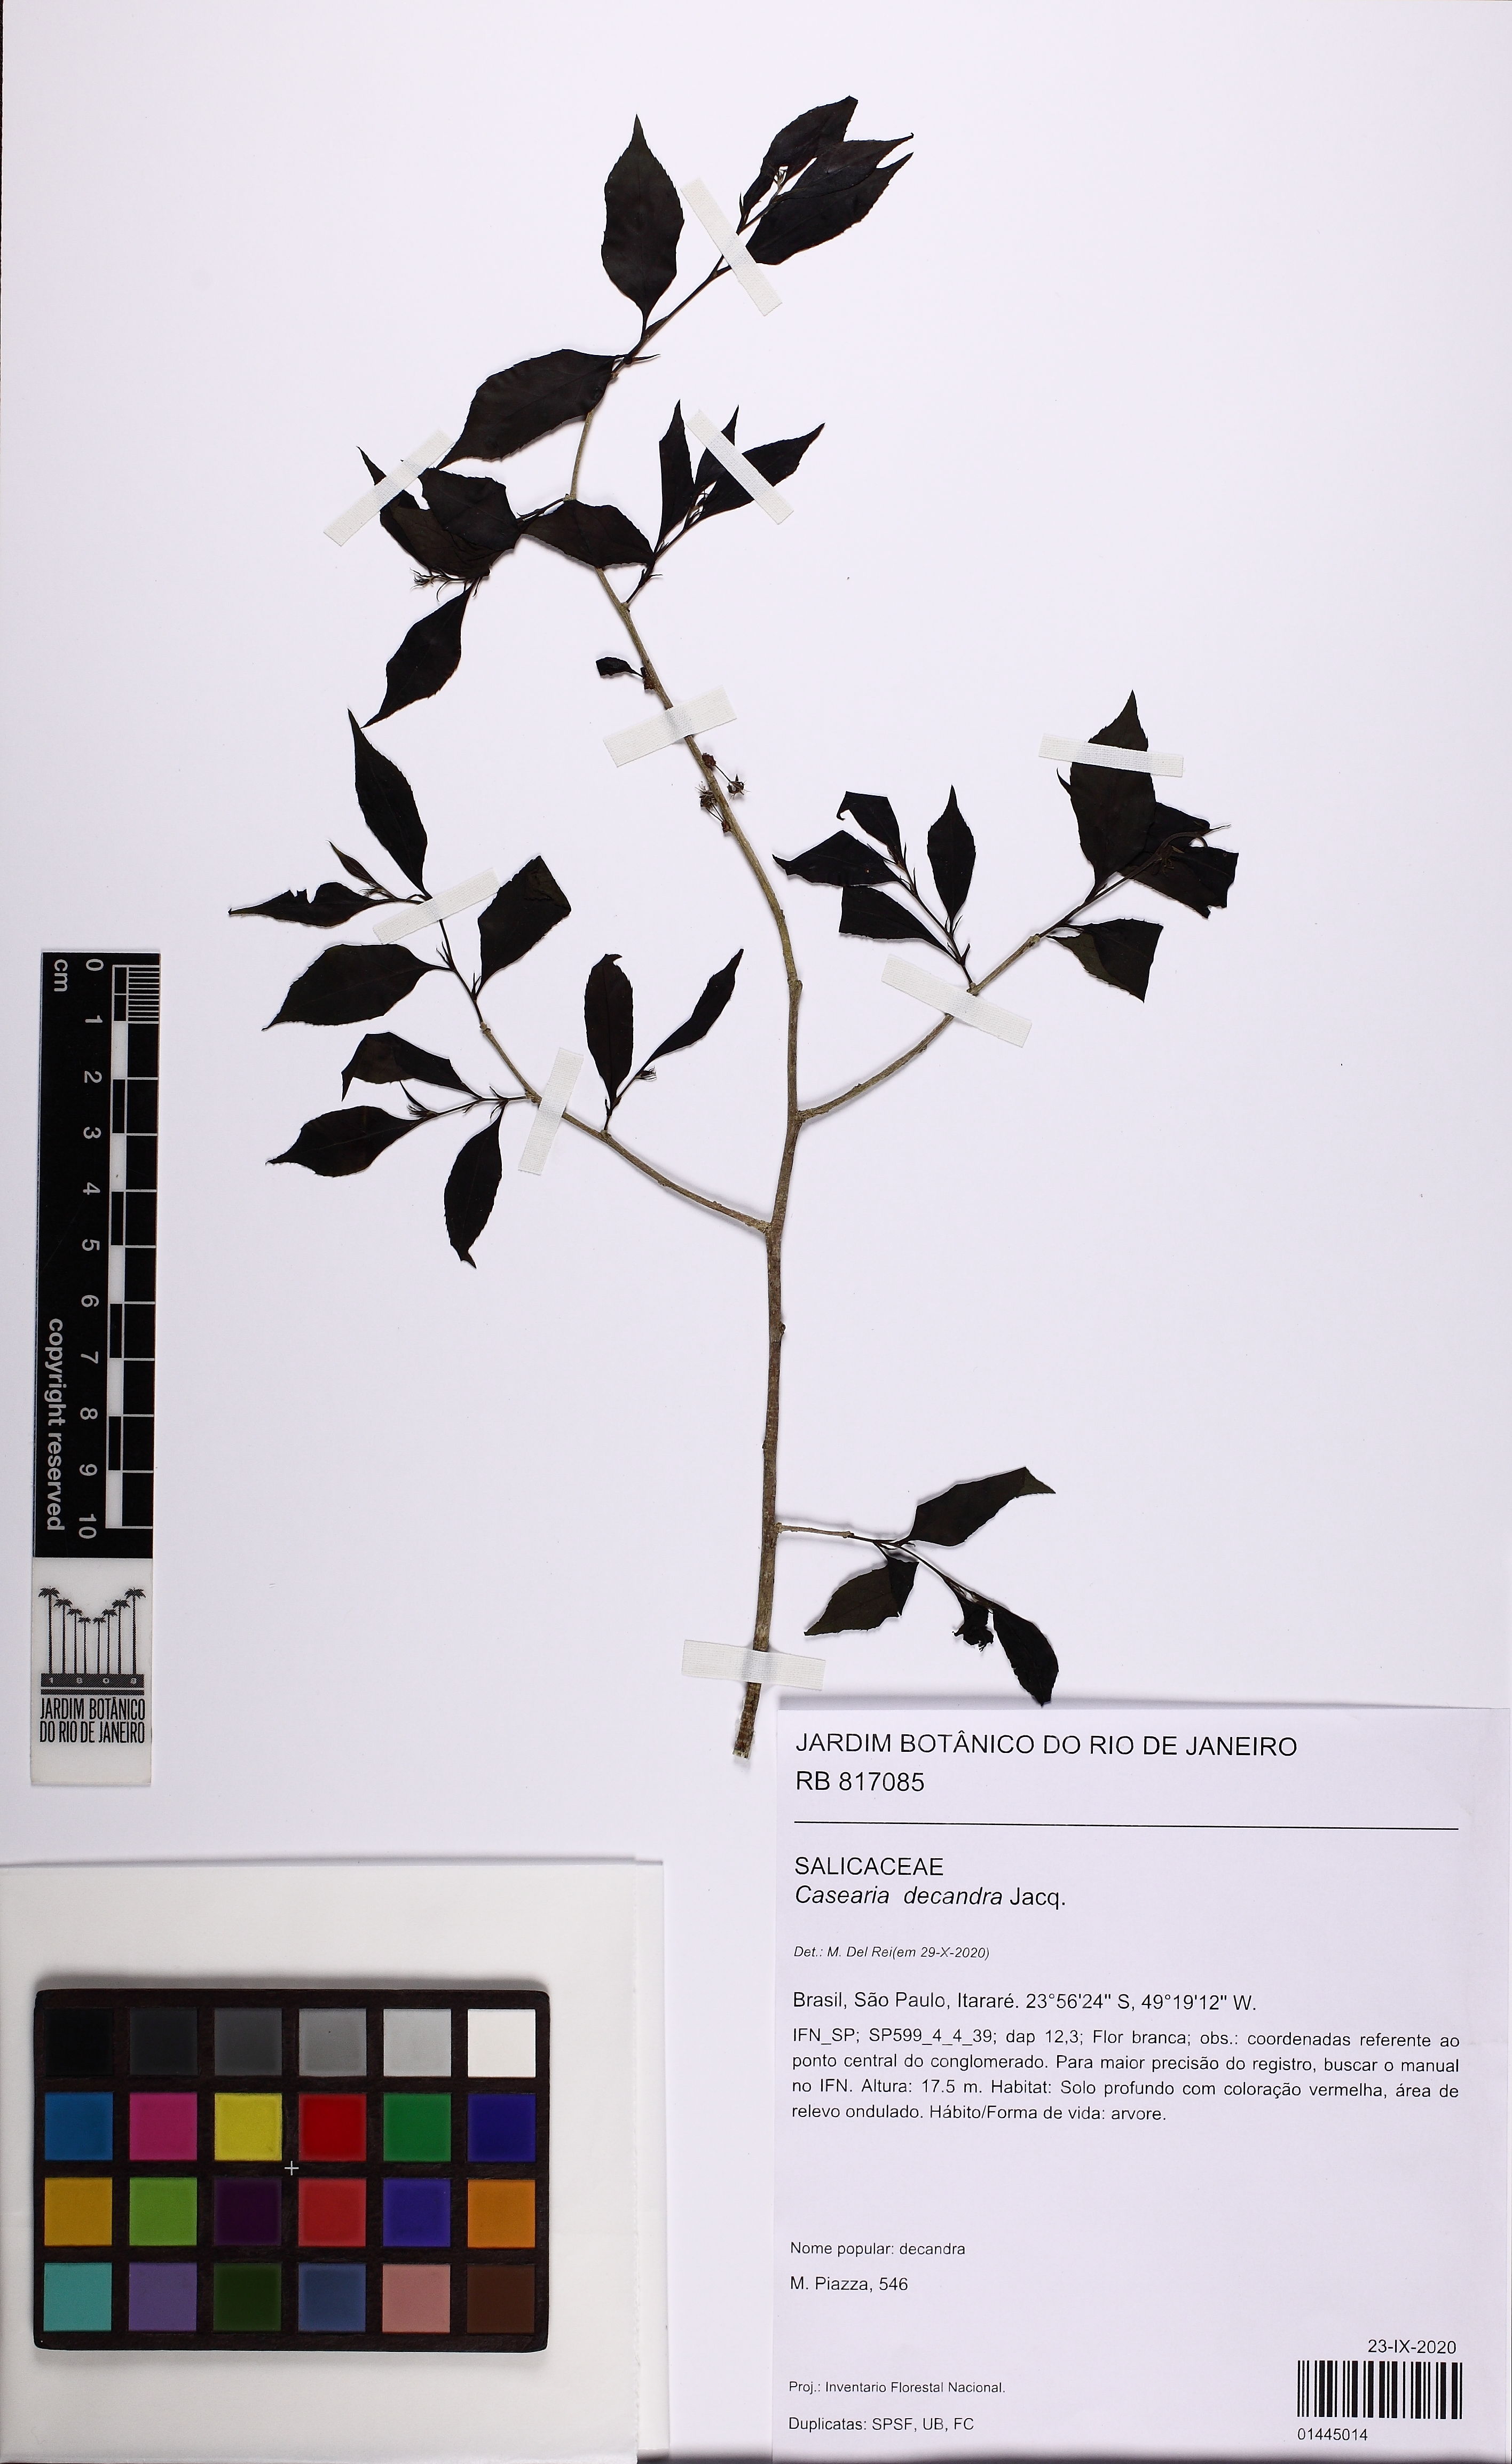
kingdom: Plantae
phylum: Tracheophyta
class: Magnoliopsida
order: Malpighiales
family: Salicaceae
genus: Casearia
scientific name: Casearia decandra
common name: Crack open
